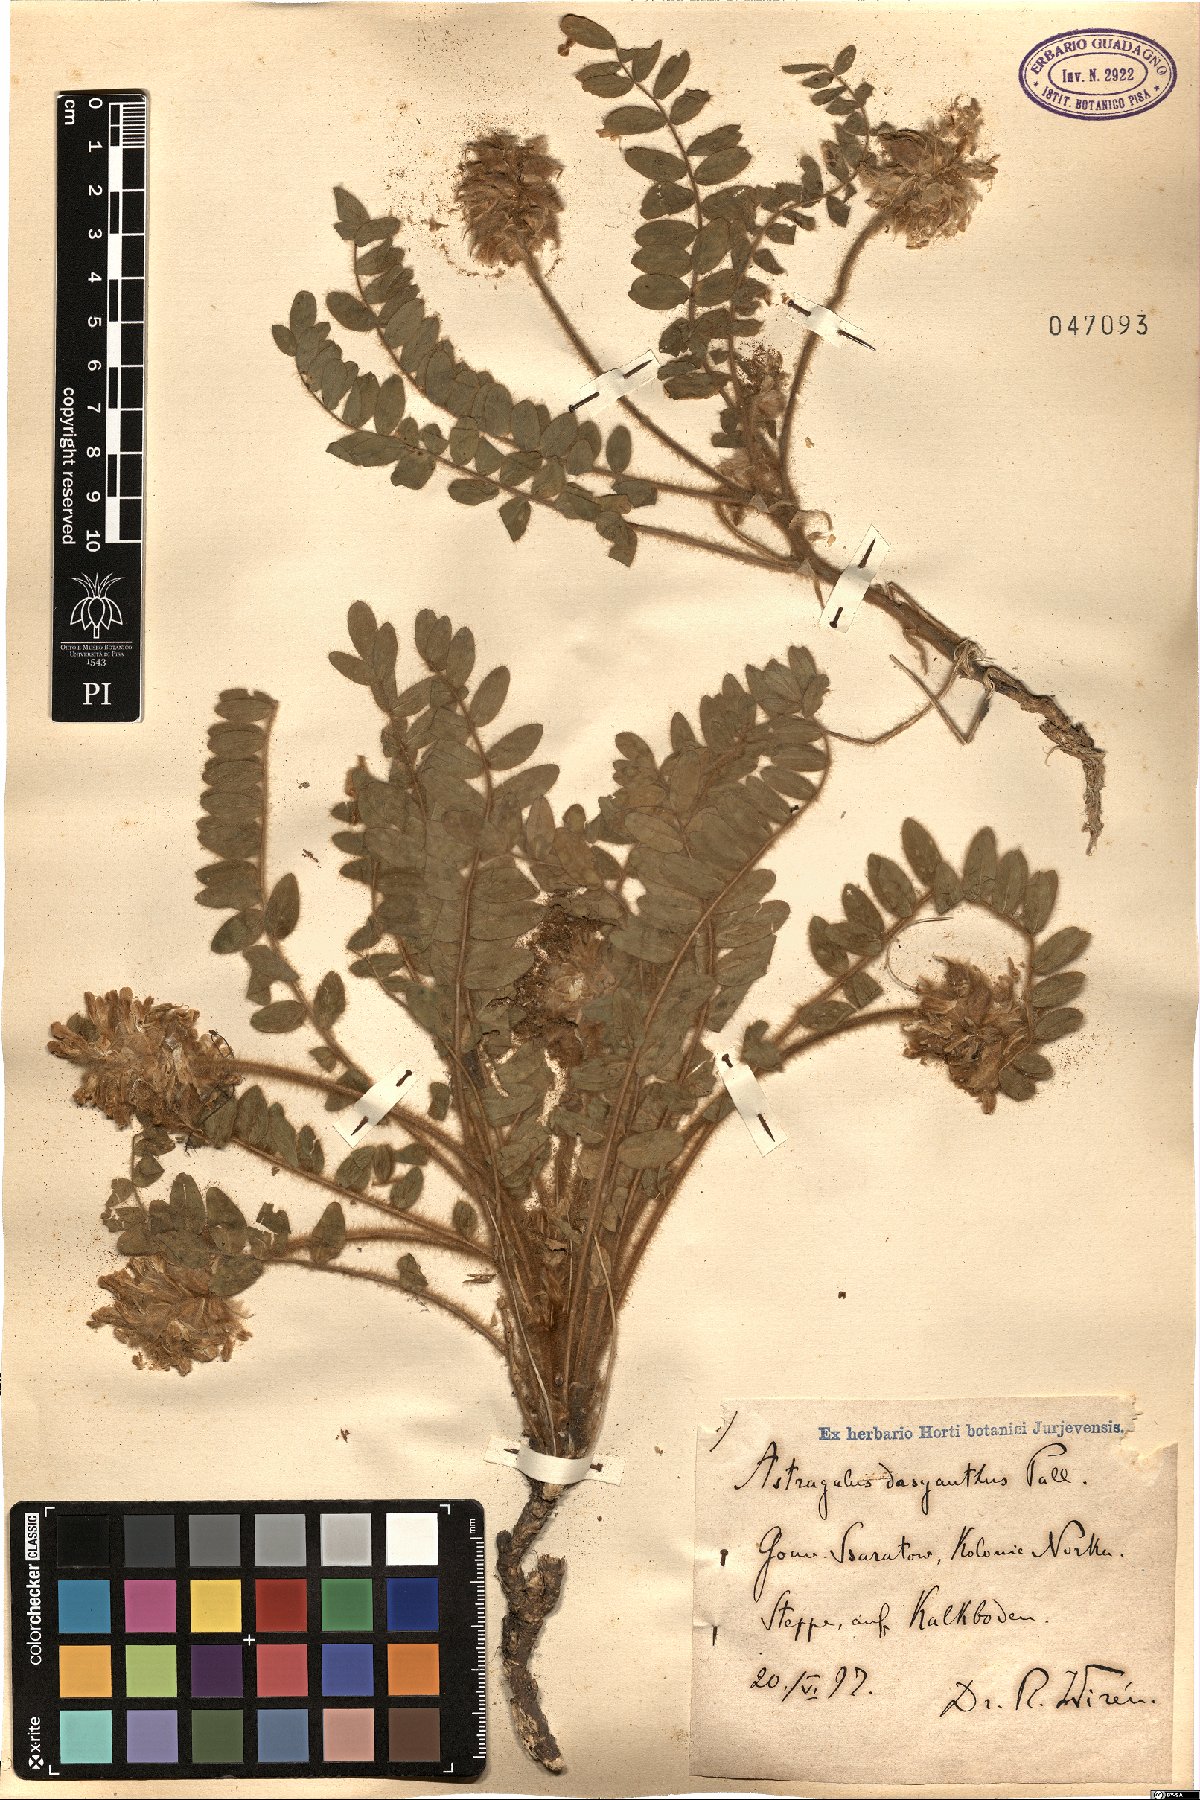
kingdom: Plantae
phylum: Tracheophyta
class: Magnoliopsida
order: Fabales
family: Fabaceae
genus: Astragalus
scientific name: Astragalus dasyanthus
